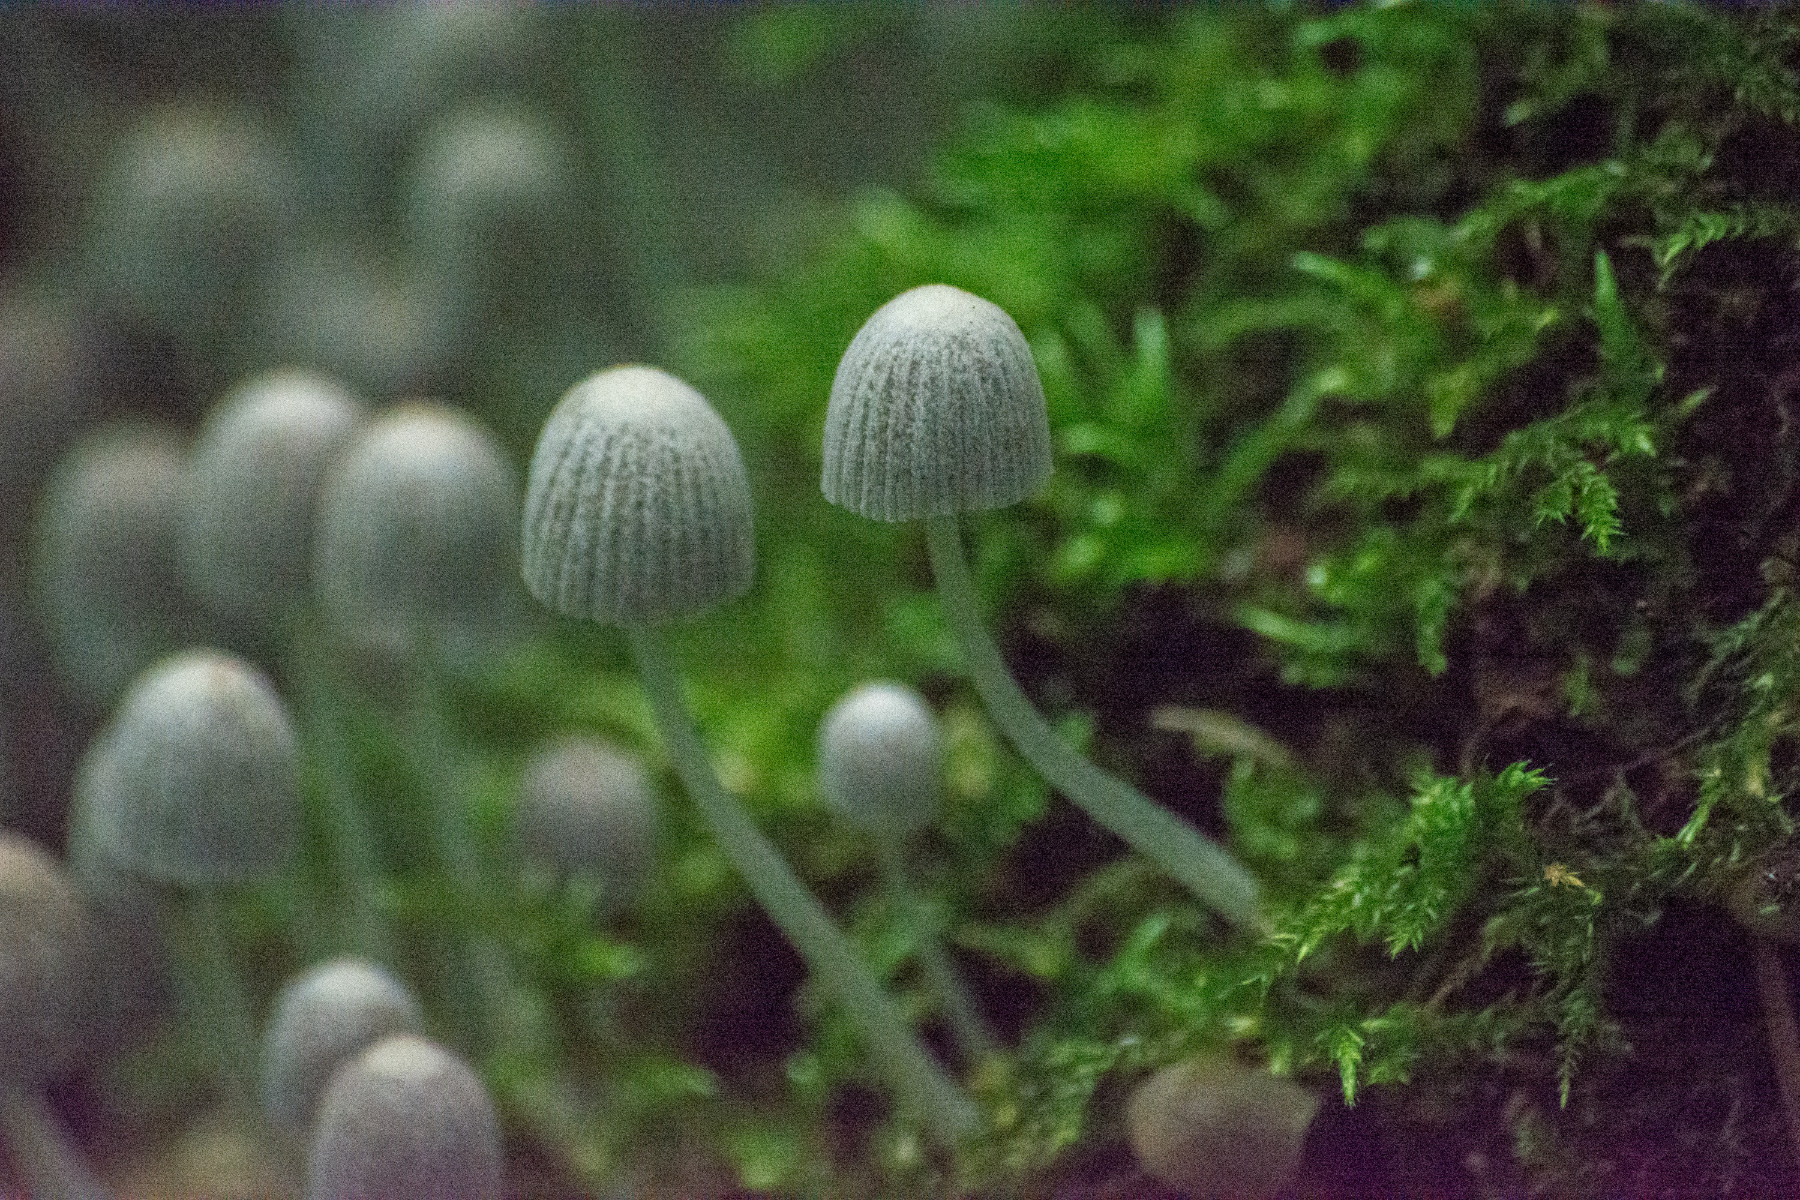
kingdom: Fungi
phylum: Basidiomycota
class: Agaricomycetes
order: Agaricales
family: Psathyrellaceae
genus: Coprinellus
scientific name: Coprinellus disseminatus
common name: bredsået blækhat
